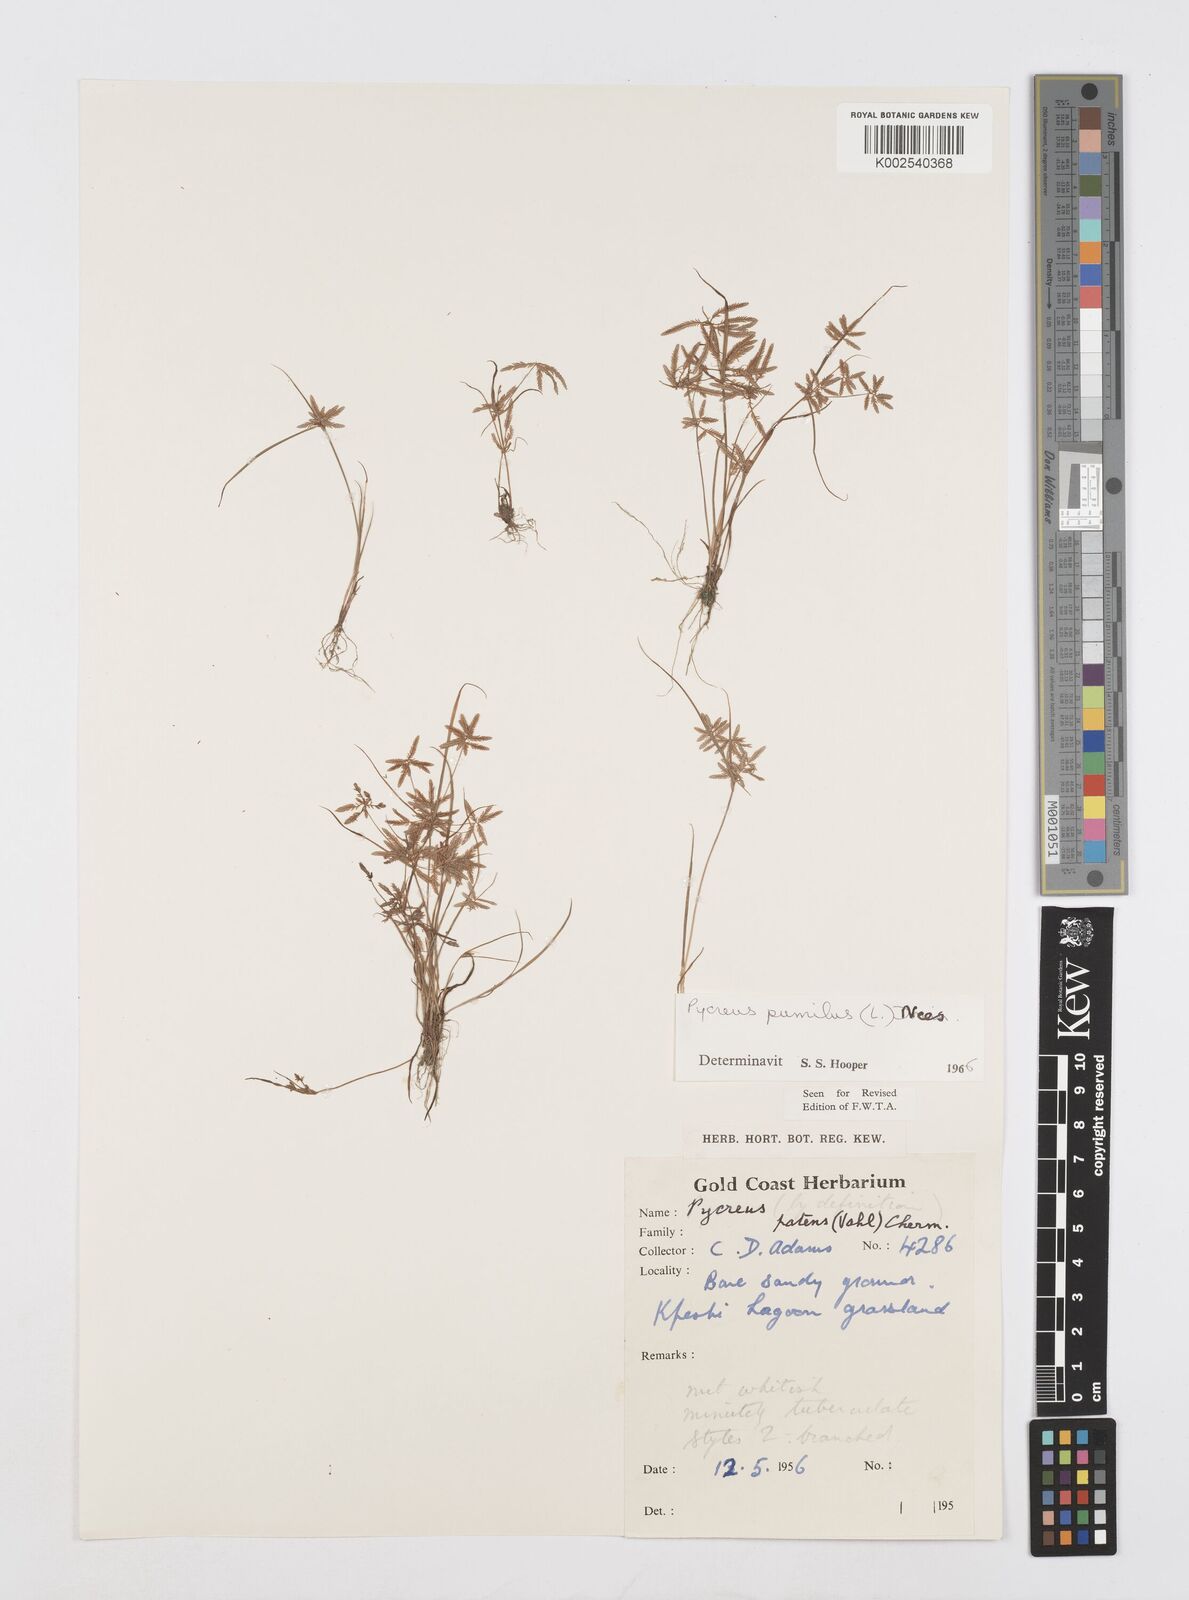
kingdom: Plantae
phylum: Tracheophyta
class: Liliopsida
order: Poales
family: Cyperaceae
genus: Cyperus
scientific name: Cyperus pumilus
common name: Low flatsedge
